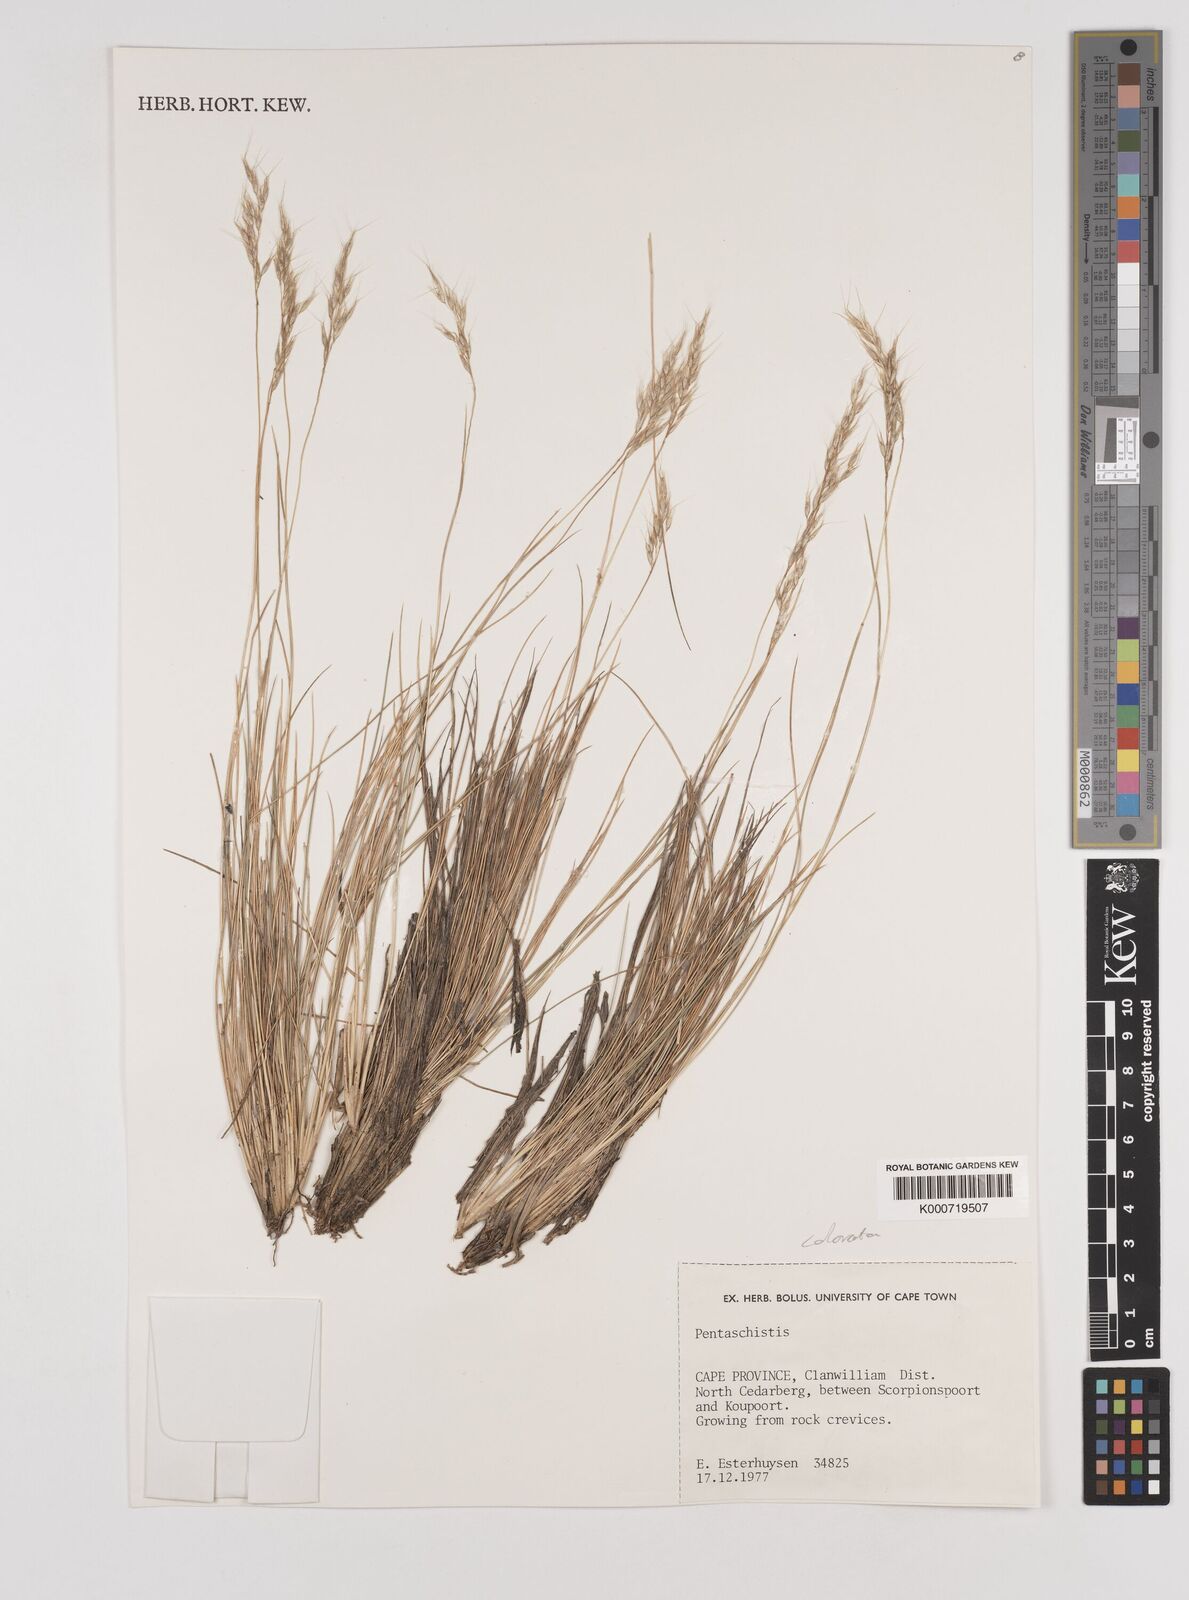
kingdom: Plantae
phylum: Tracheophyta
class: Liliopsida
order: Poales
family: Poaceae
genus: Pentameris
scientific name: Pentameris colorata
